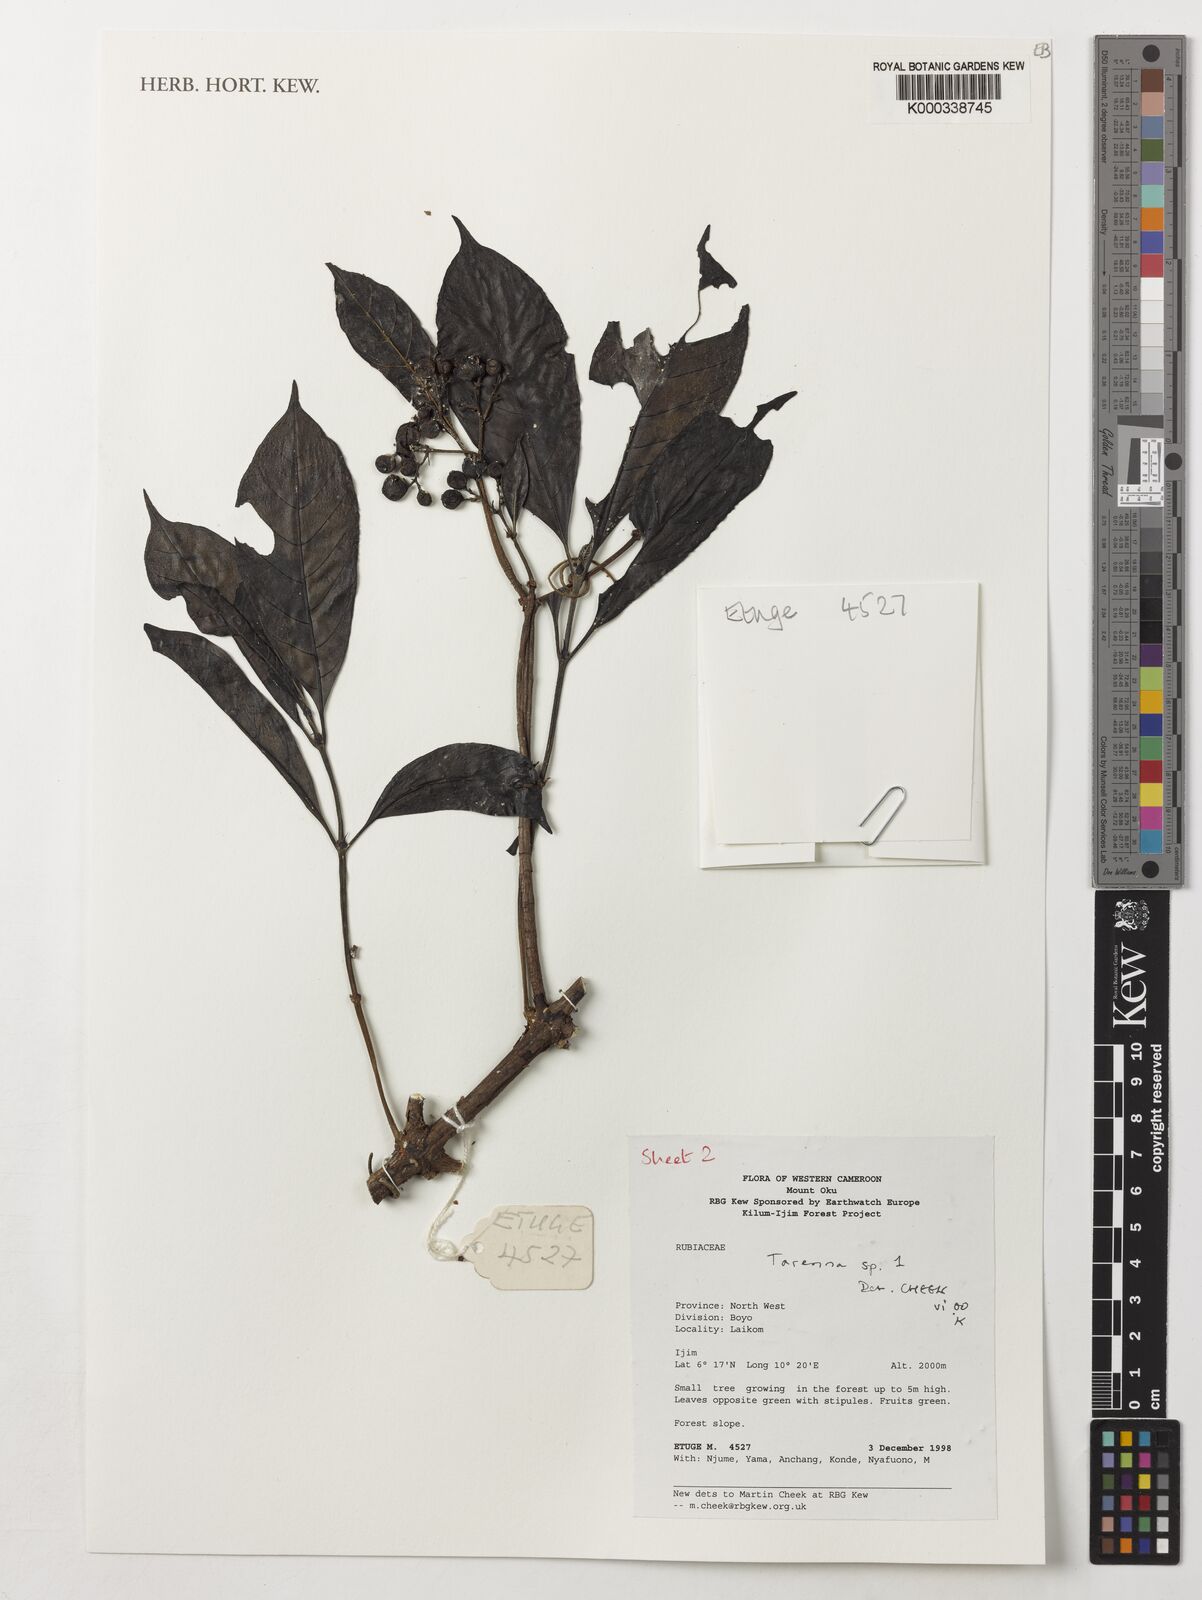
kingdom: Plantae
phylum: Tracheophyta
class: Magnoliopsida
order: Gentianales
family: Rubiaceae
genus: Tarenna
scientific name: Tarenna pavettoides
